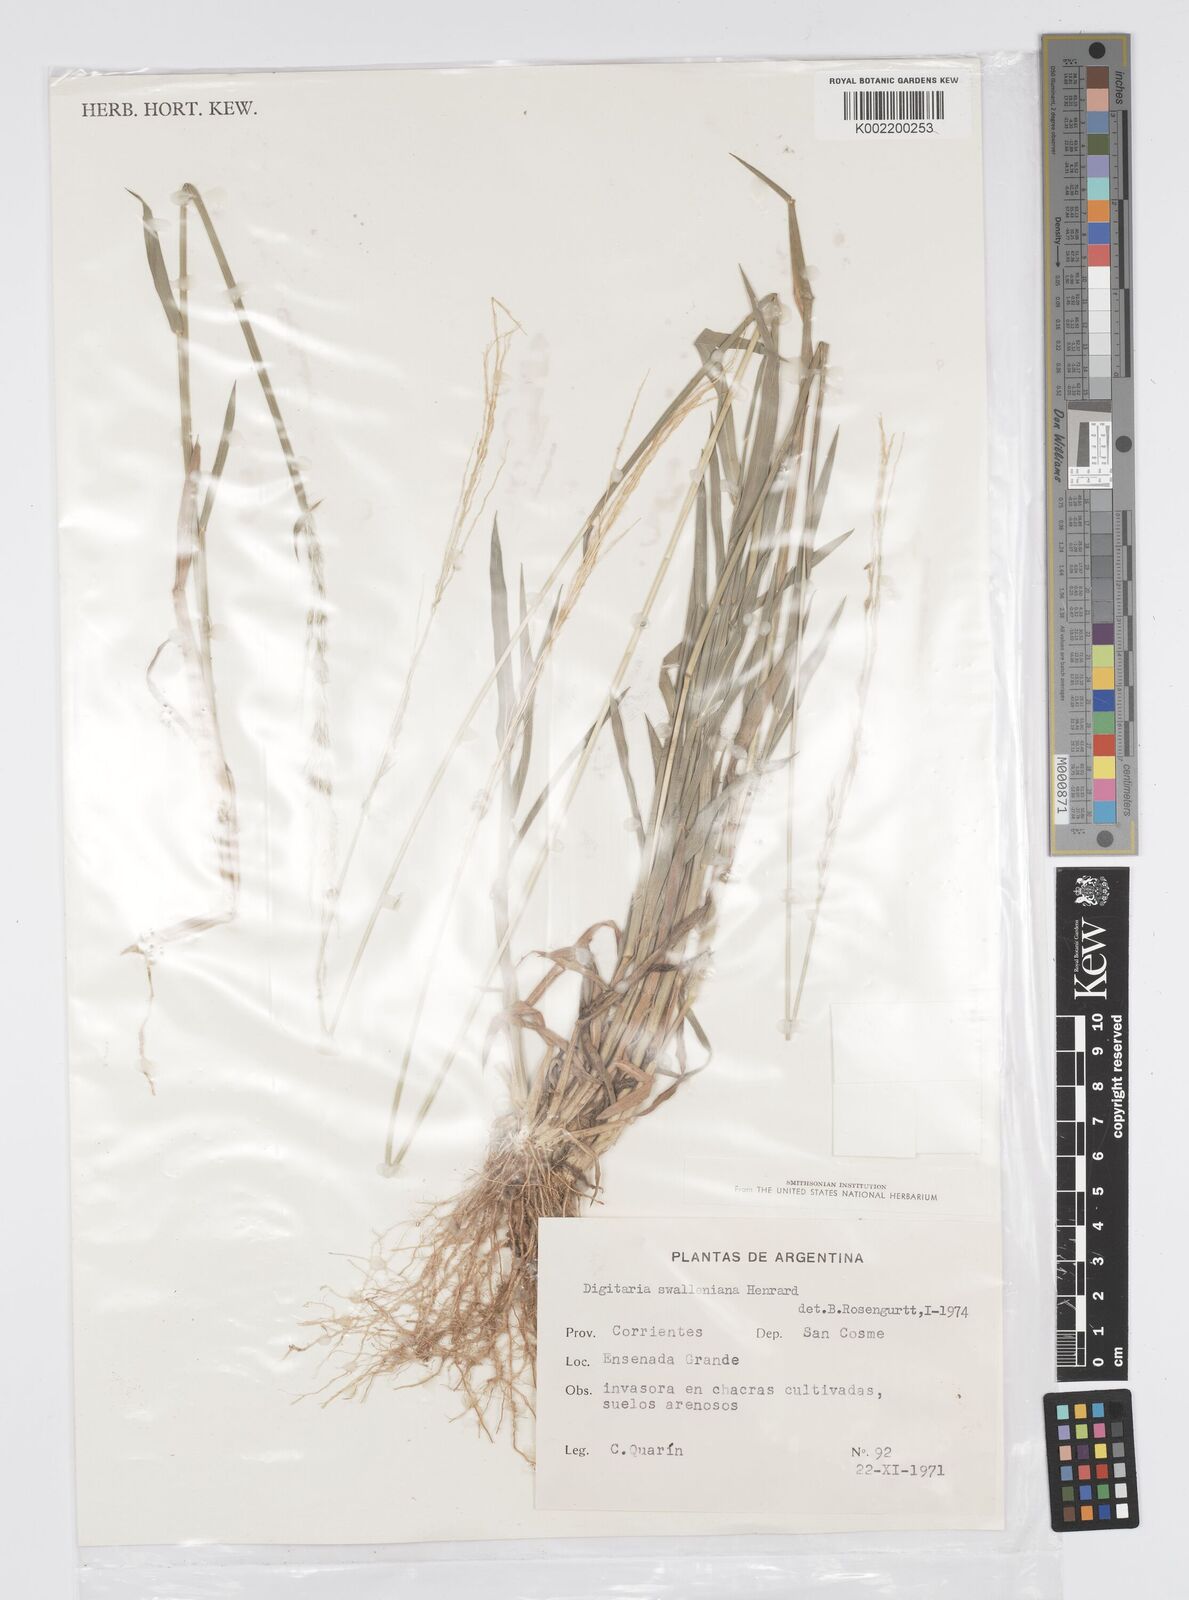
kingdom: Plantae
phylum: Tracheophyta
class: Liliopsida
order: Poales
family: Poaceae
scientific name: Poaceae
